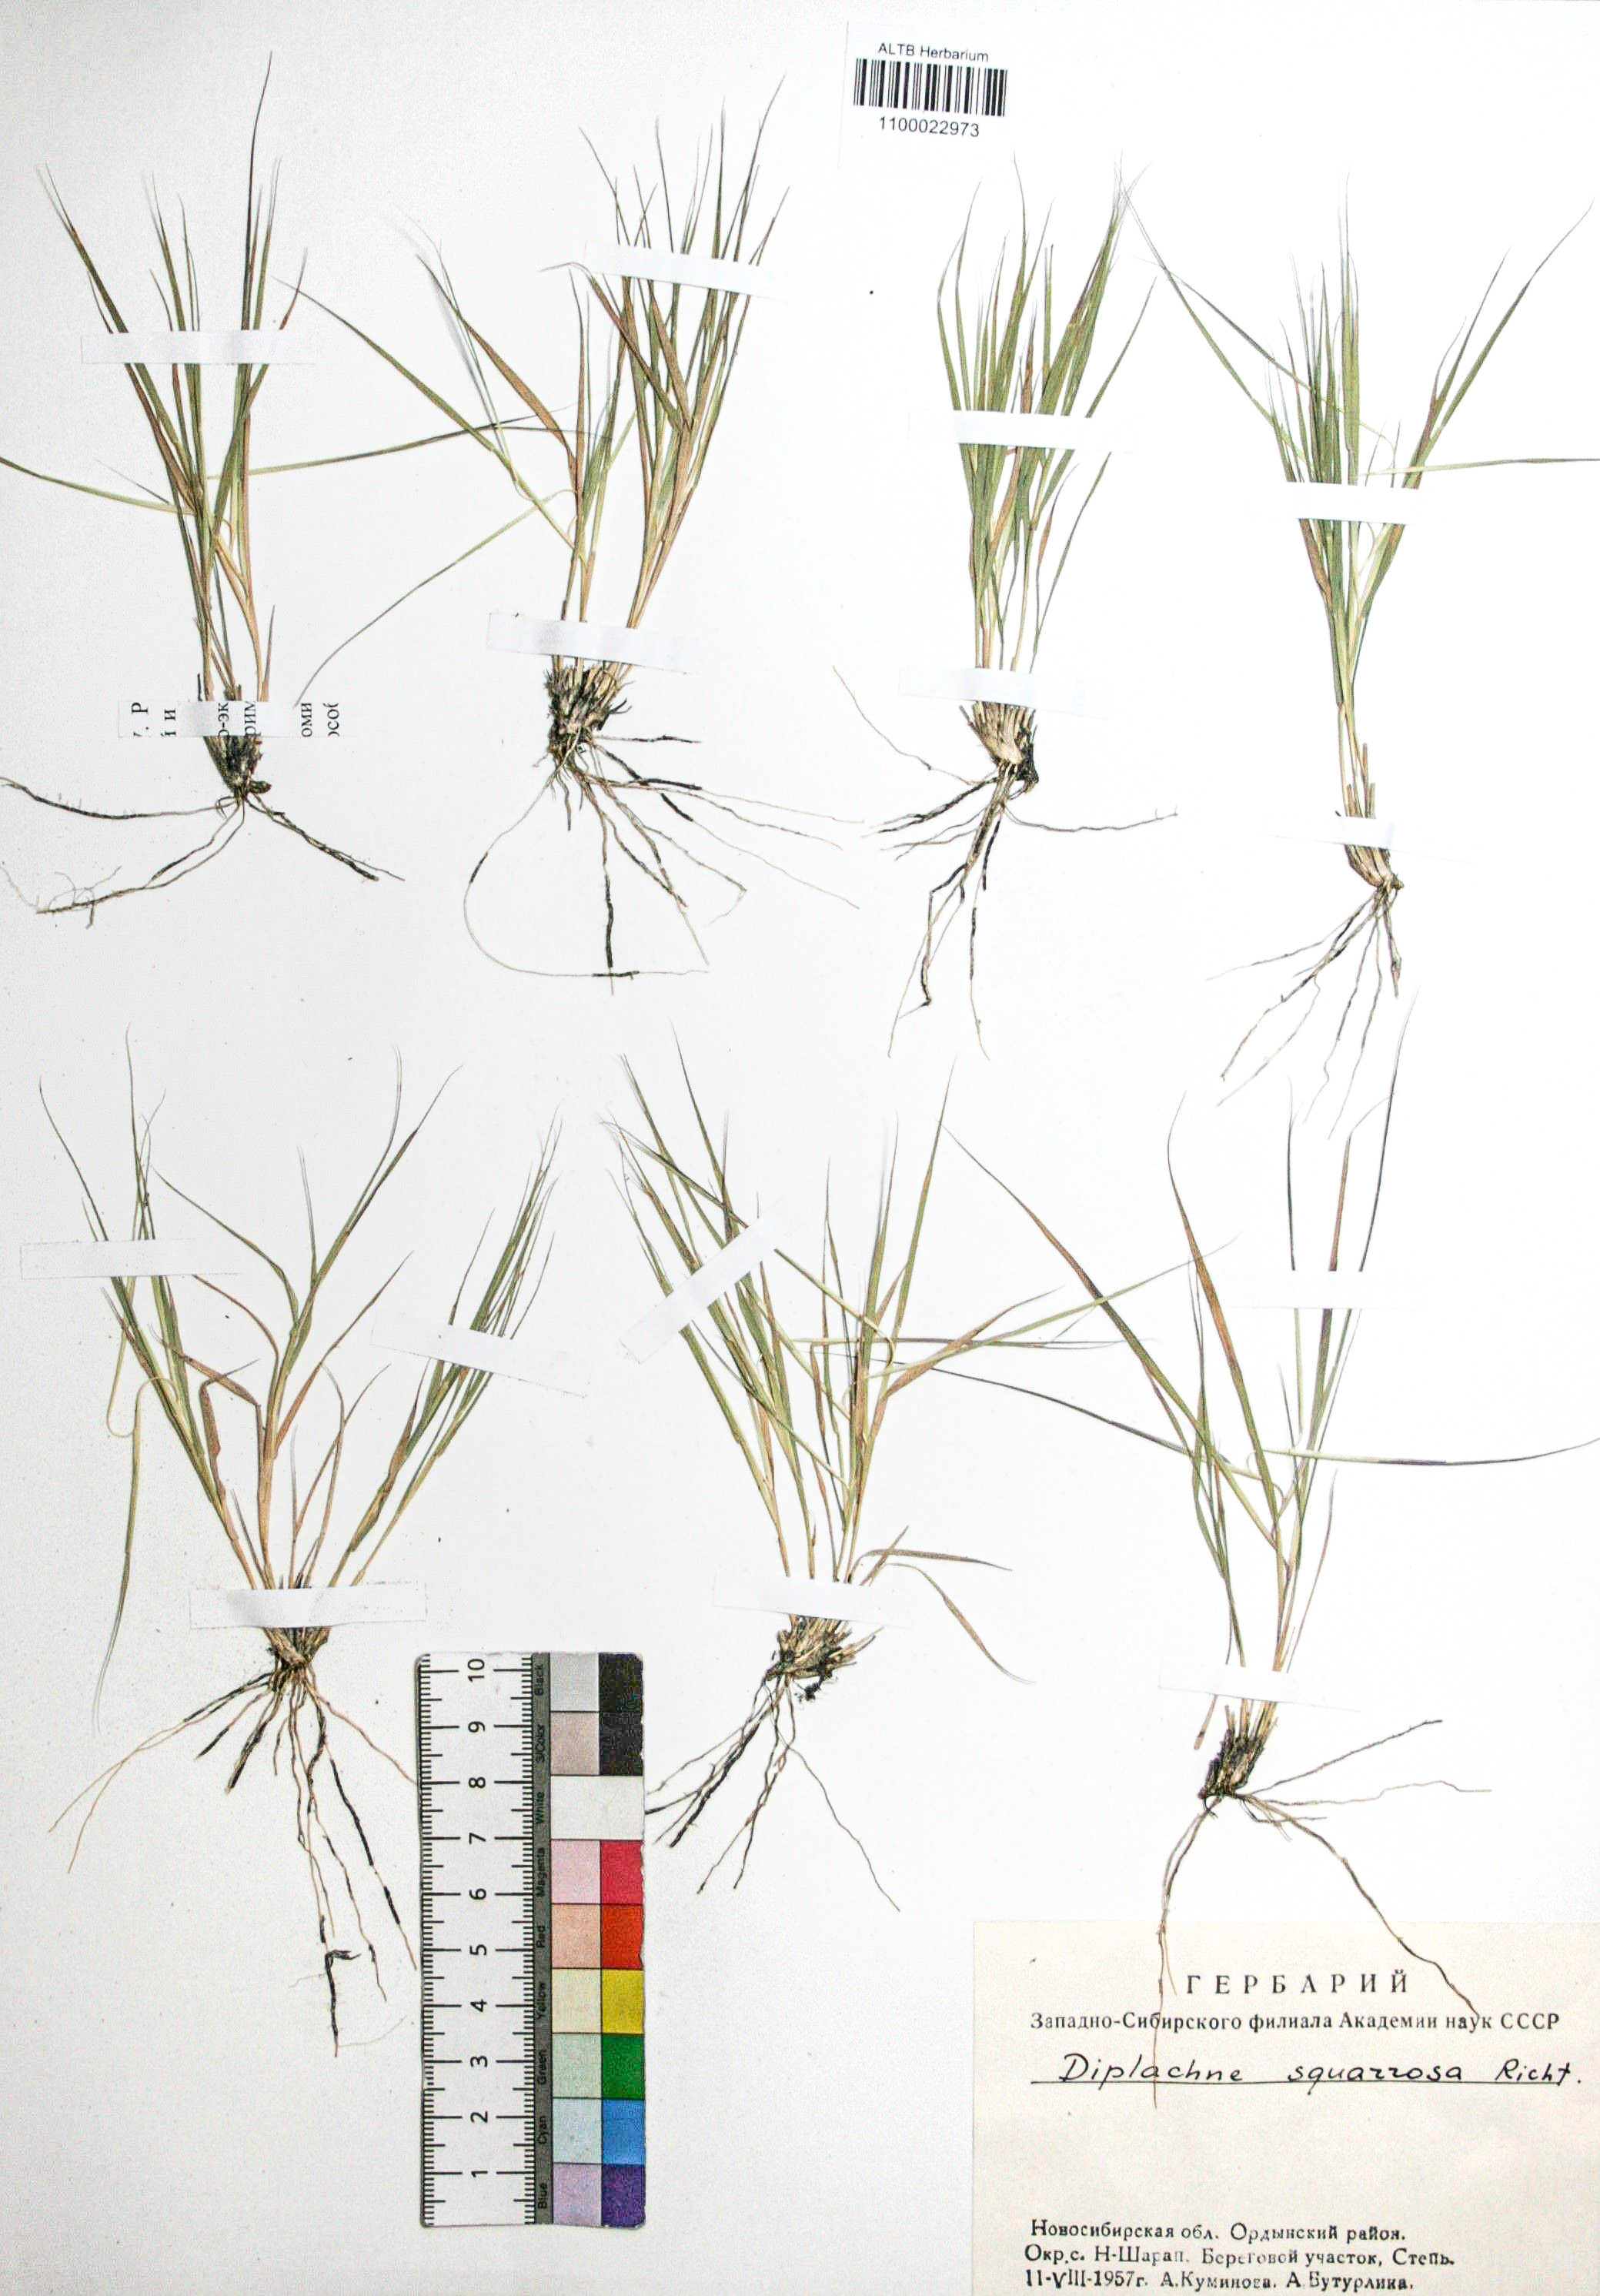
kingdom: Plantae
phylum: Tracheophyta
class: Liliopsida
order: Poales
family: Poaceae
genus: Cleistogenes
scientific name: Cleistogenes squarrosa
